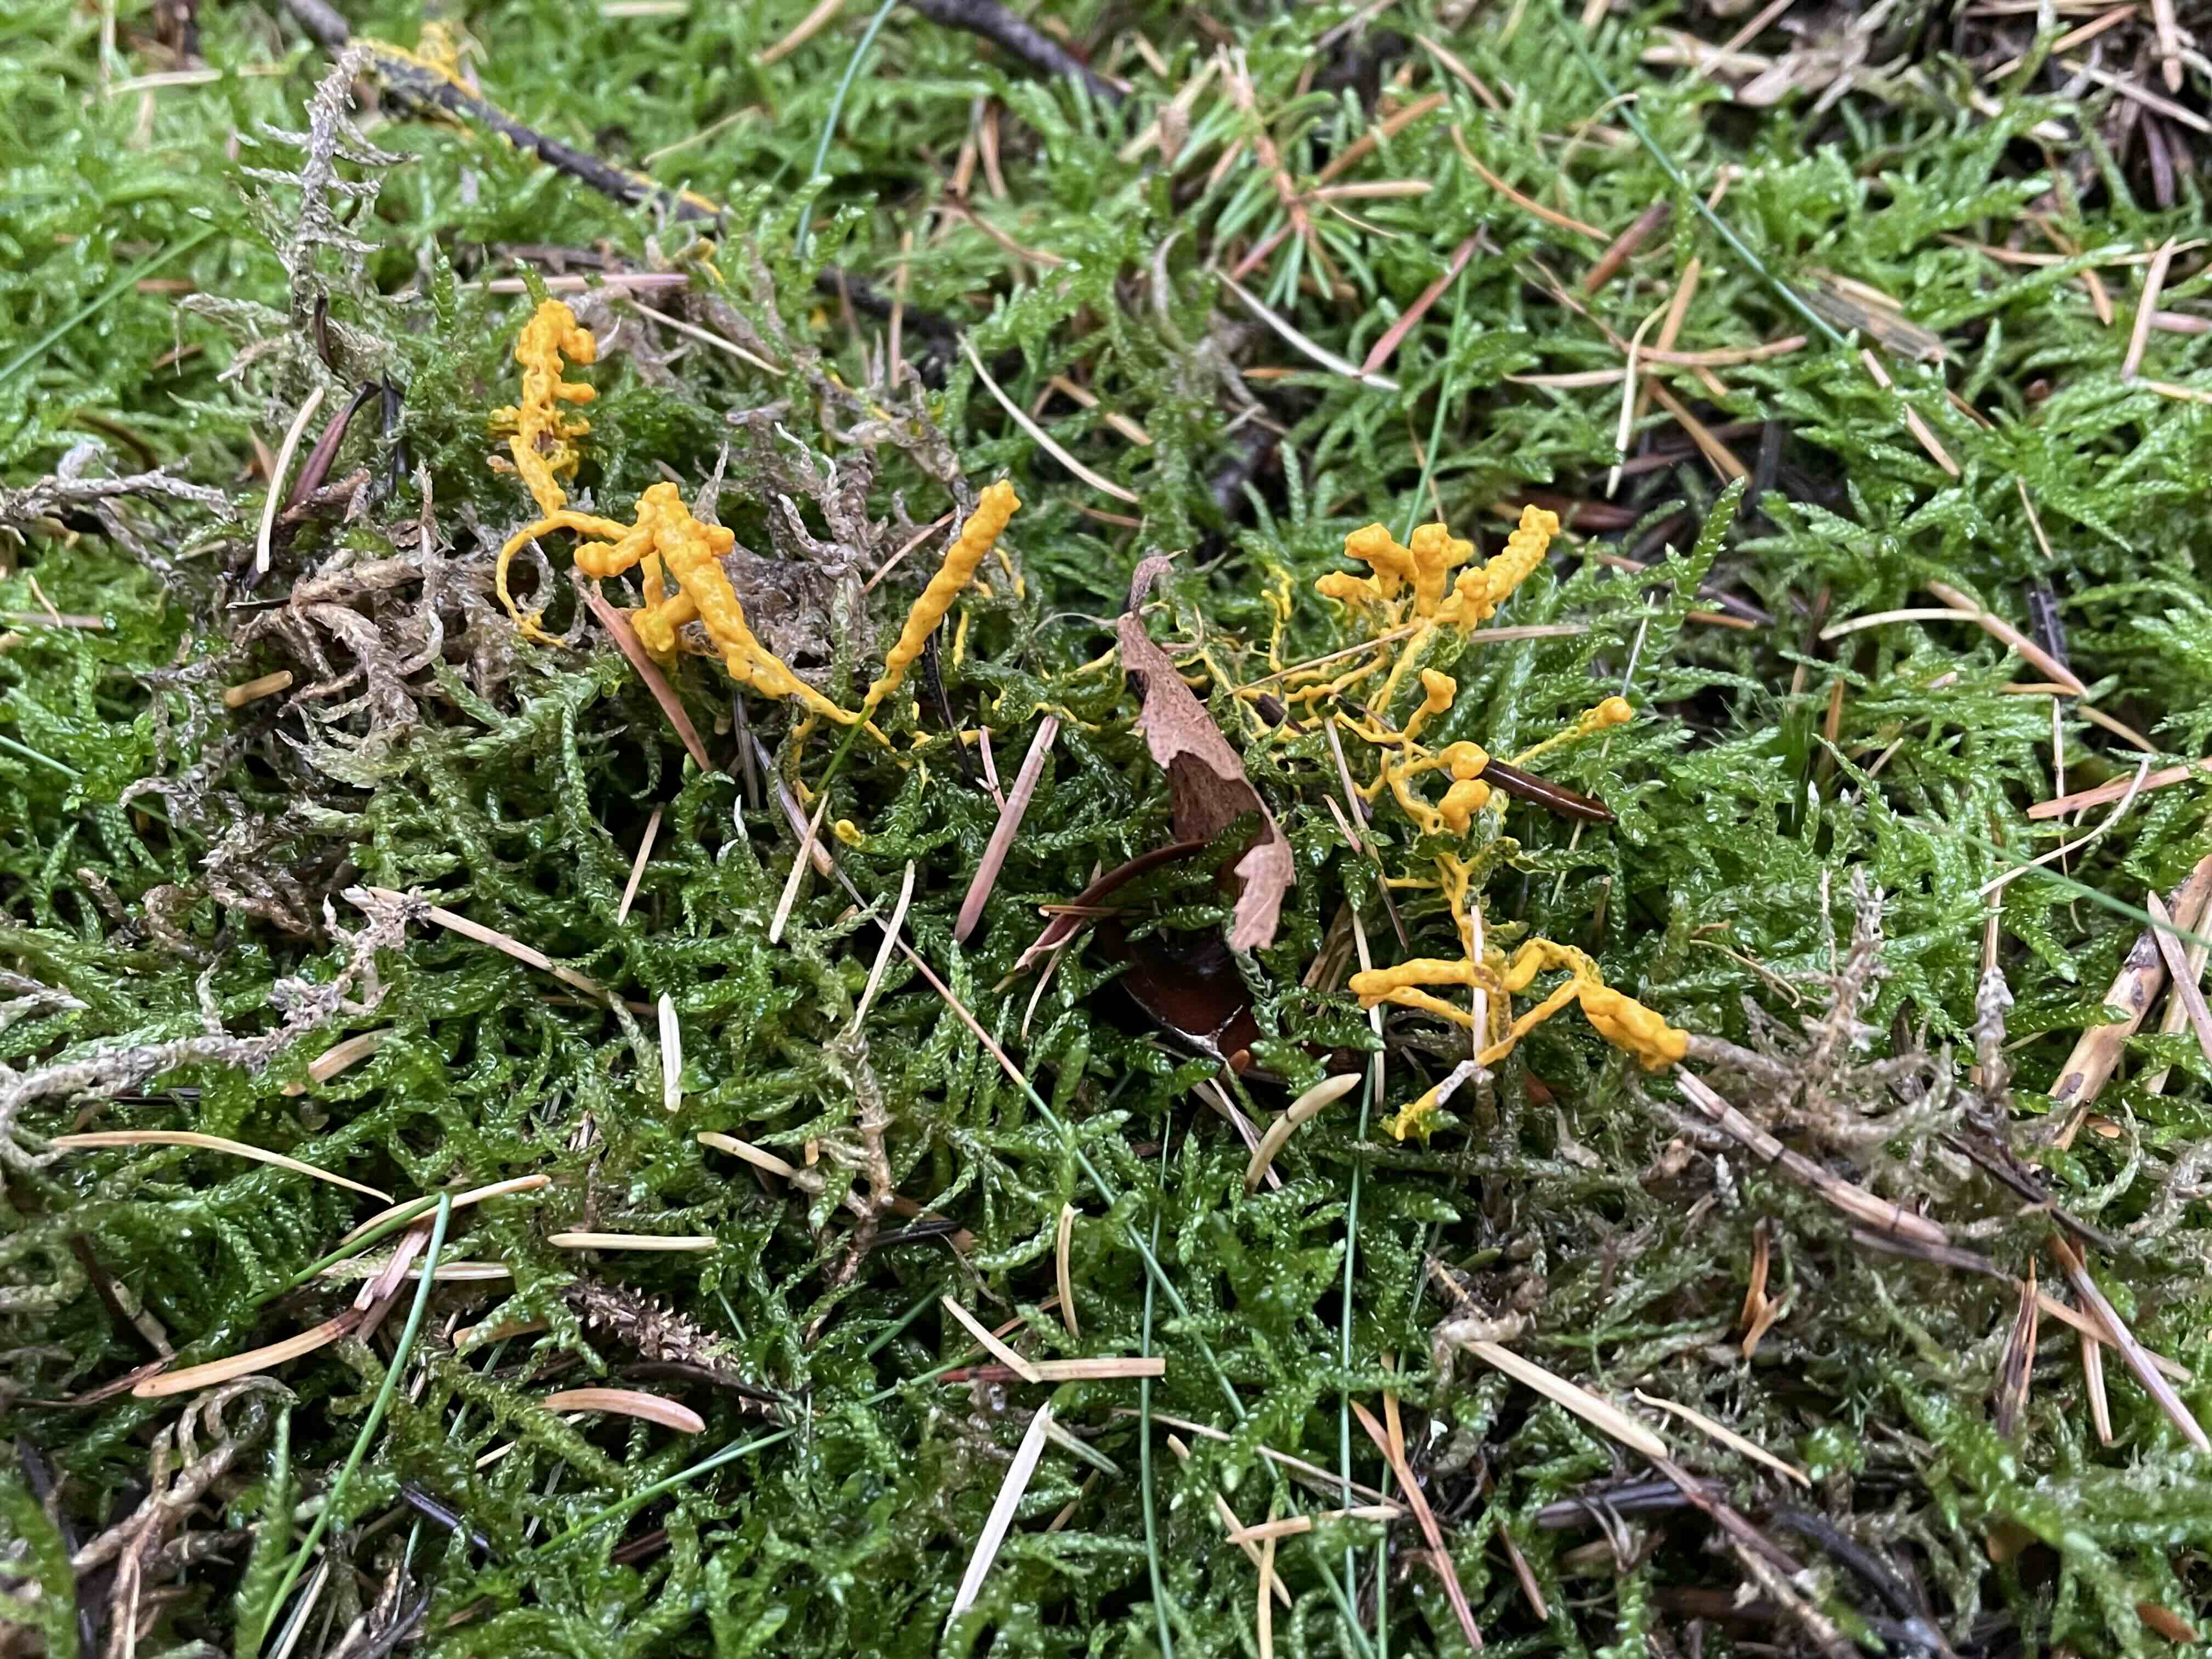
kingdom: Protozoa
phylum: Mycetozoa
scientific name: Mycetozoa
